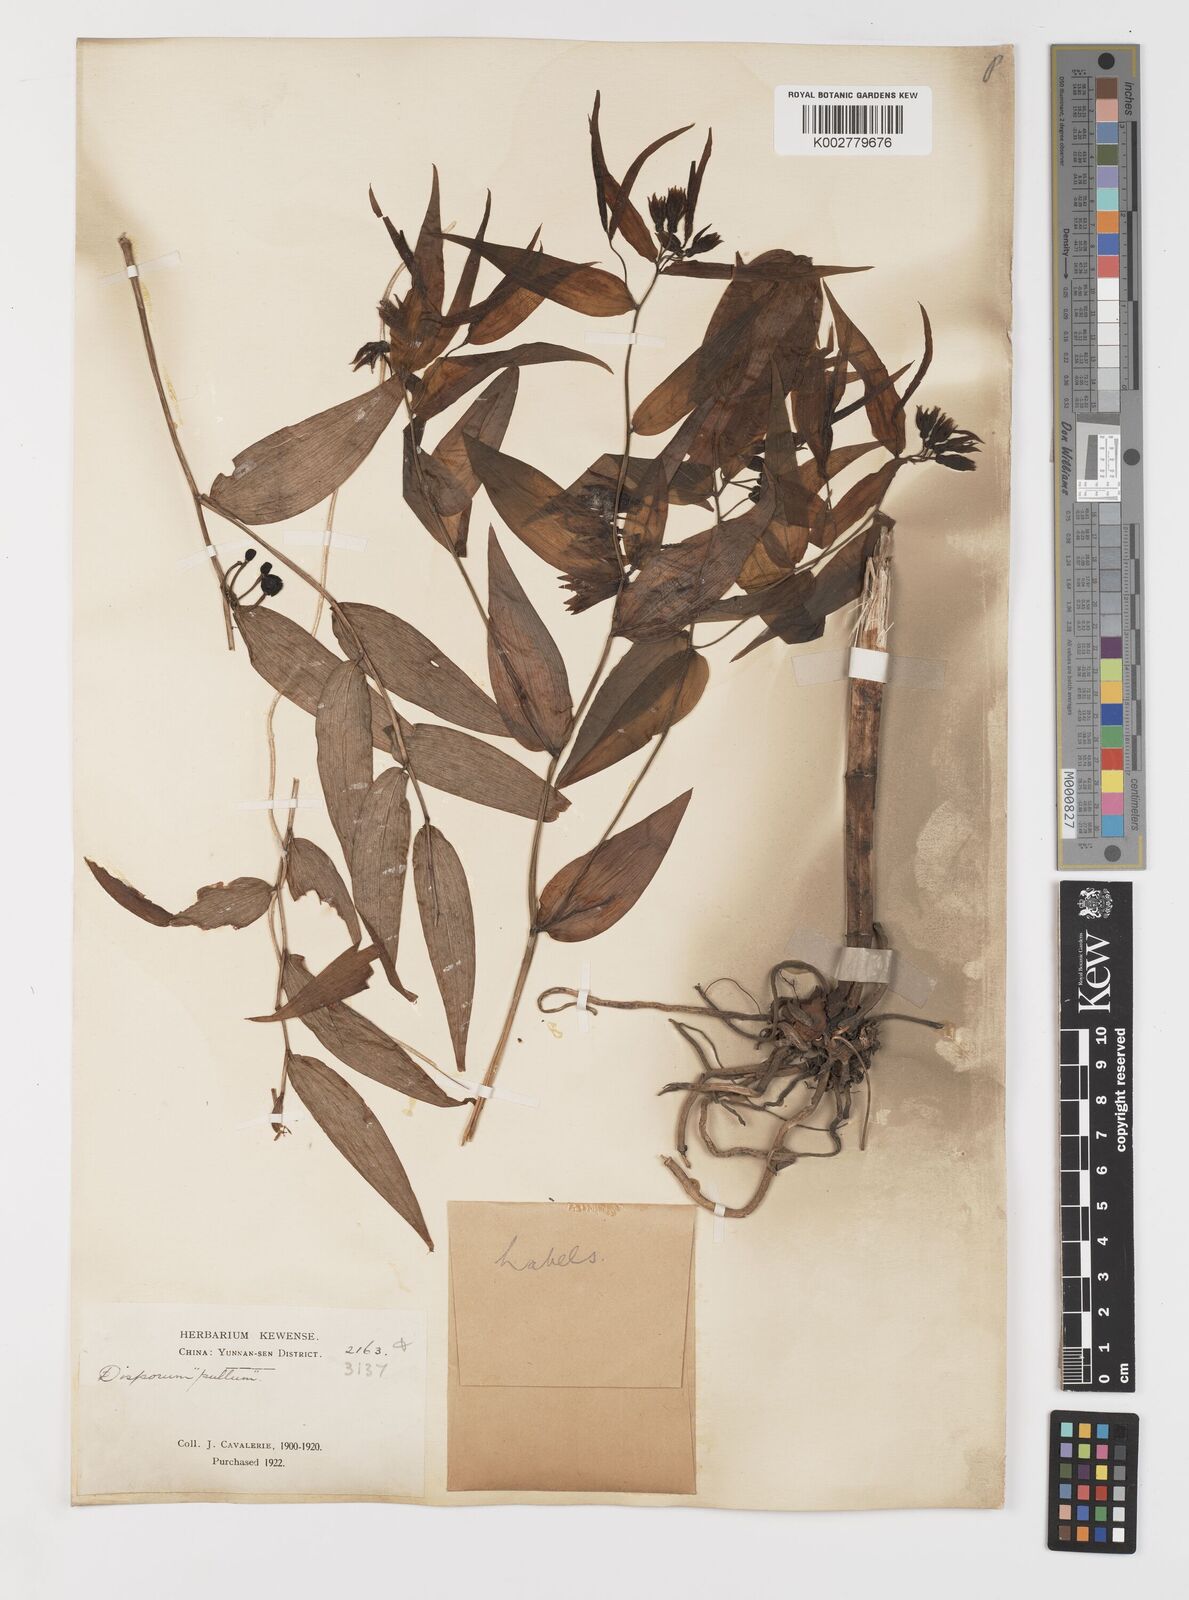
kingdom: Plantae
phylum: Tracheophyta
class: Liliopsida
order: Liliales
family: Colchicaceae
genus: Disporum
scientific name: Disporum cantoniense
